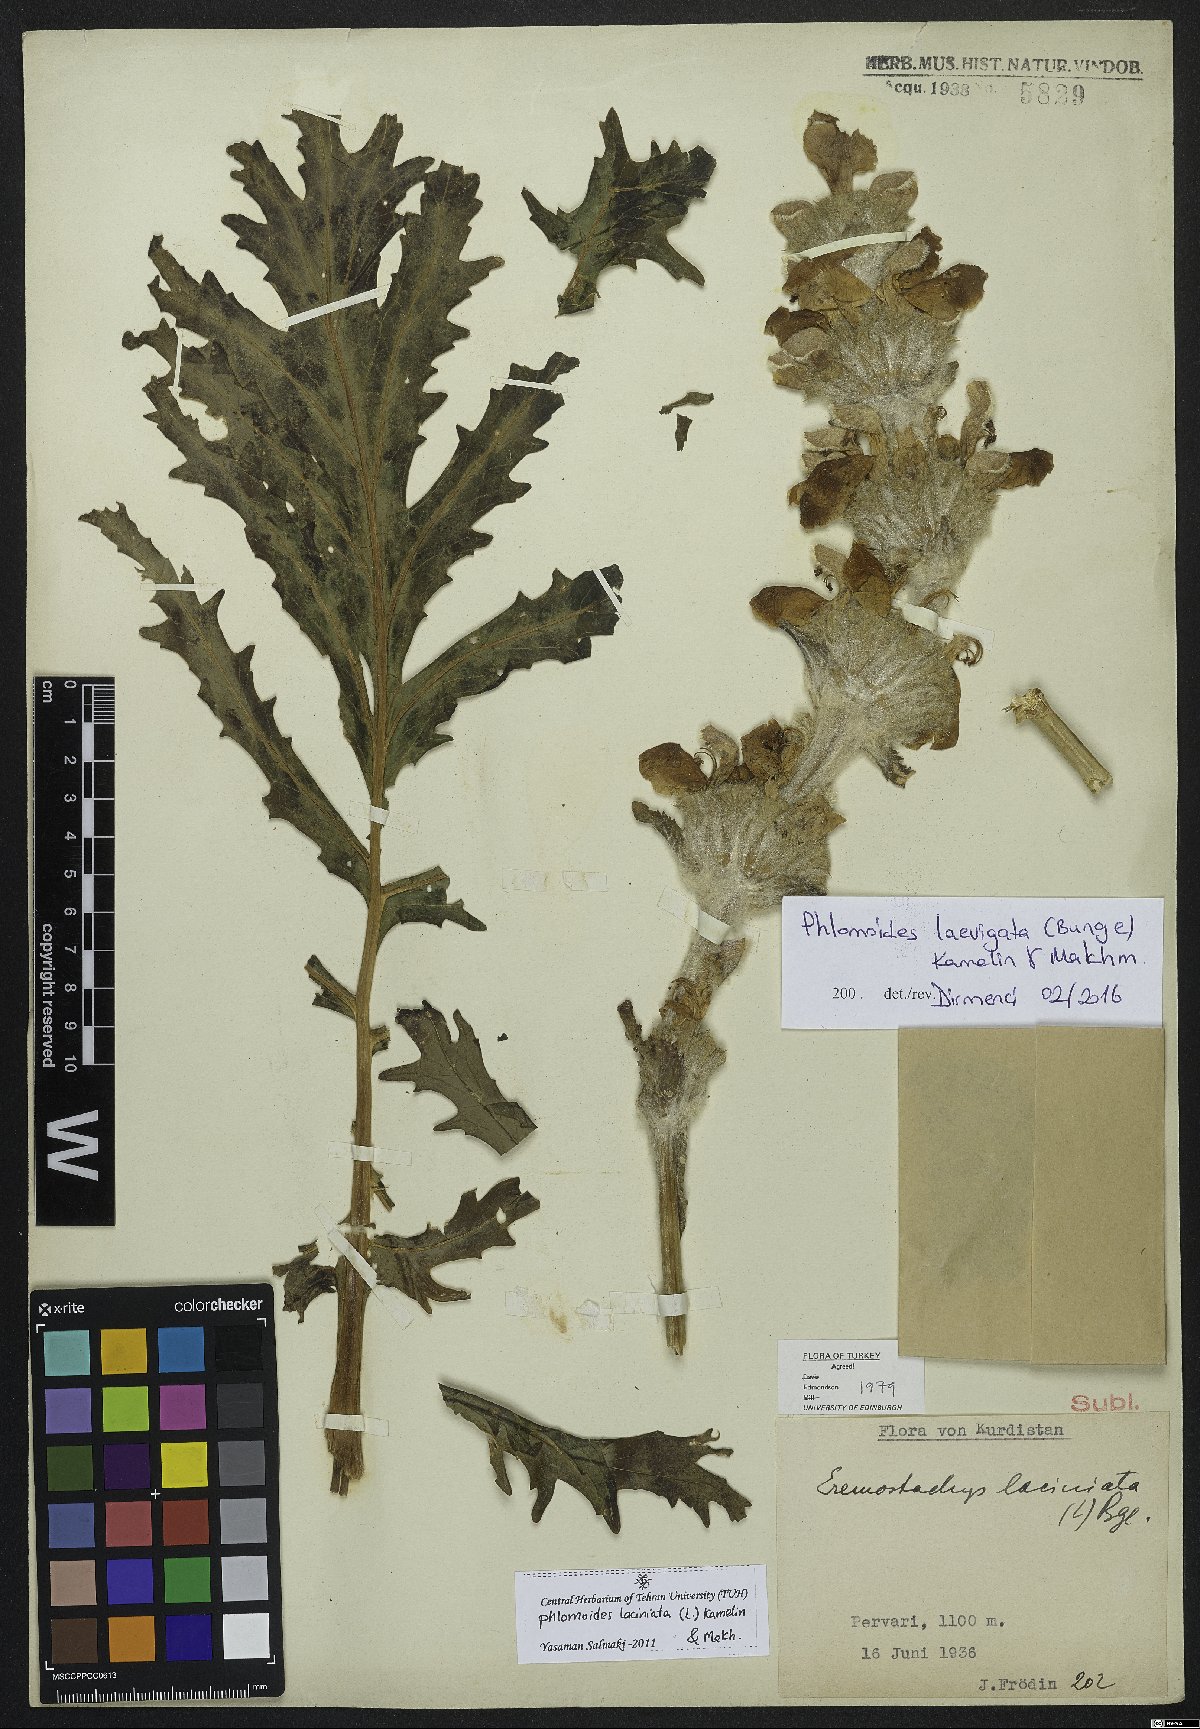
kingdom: Plantae
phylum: Tracheophyta
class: Magnoliopsida
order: Lamiales
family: Lamiaceae
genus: Phlomoides
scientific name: Phlomoides laevigata
